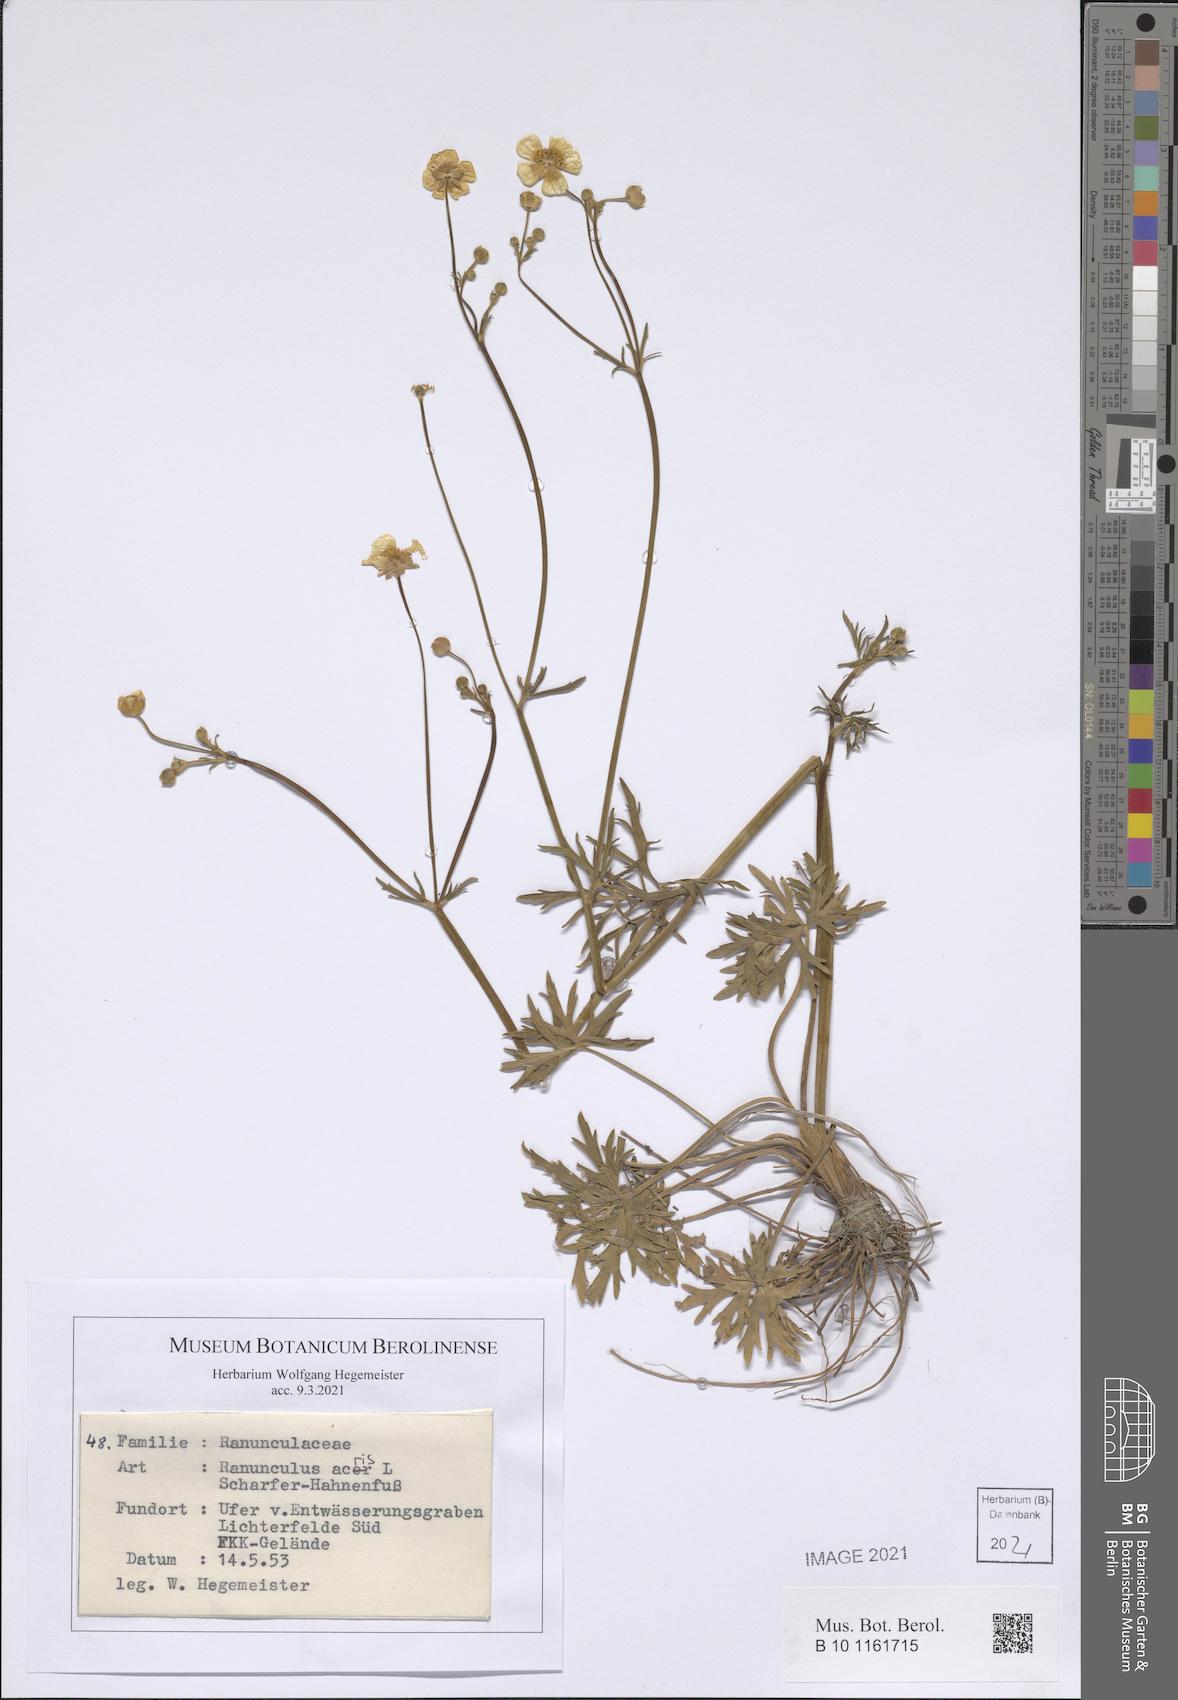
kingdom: Plantae
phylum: Tracheophyta
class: Magnoliopsida
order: Ranunculales
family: Ranunculaceae
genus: Ranunculus
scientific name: Ranunculus acris
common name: Meadow buttercup
